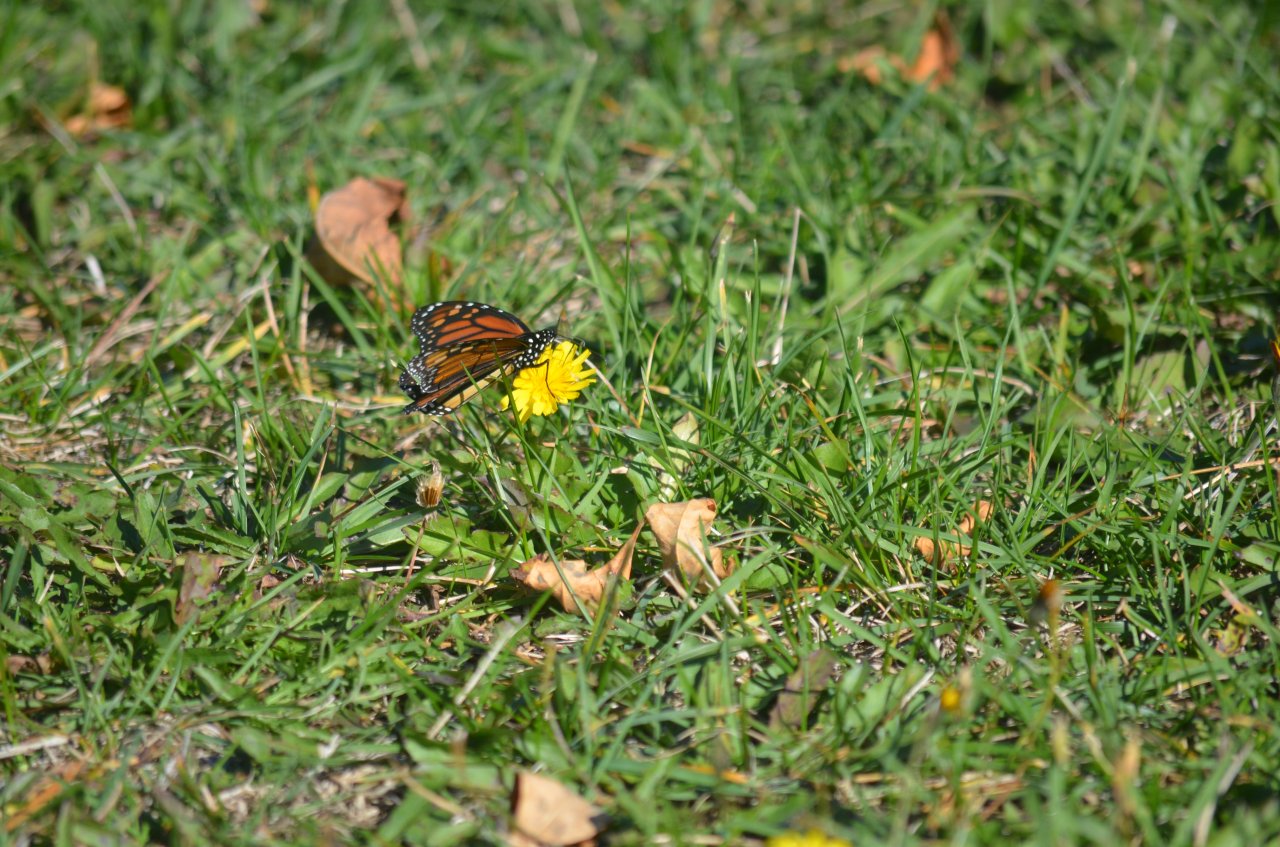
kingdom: Animalia
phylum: Arthropoda
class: Insecta
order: Lepidoptera
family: Nymphalidae
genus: Danaus
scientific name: Danaus plexippus
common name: Monarch
